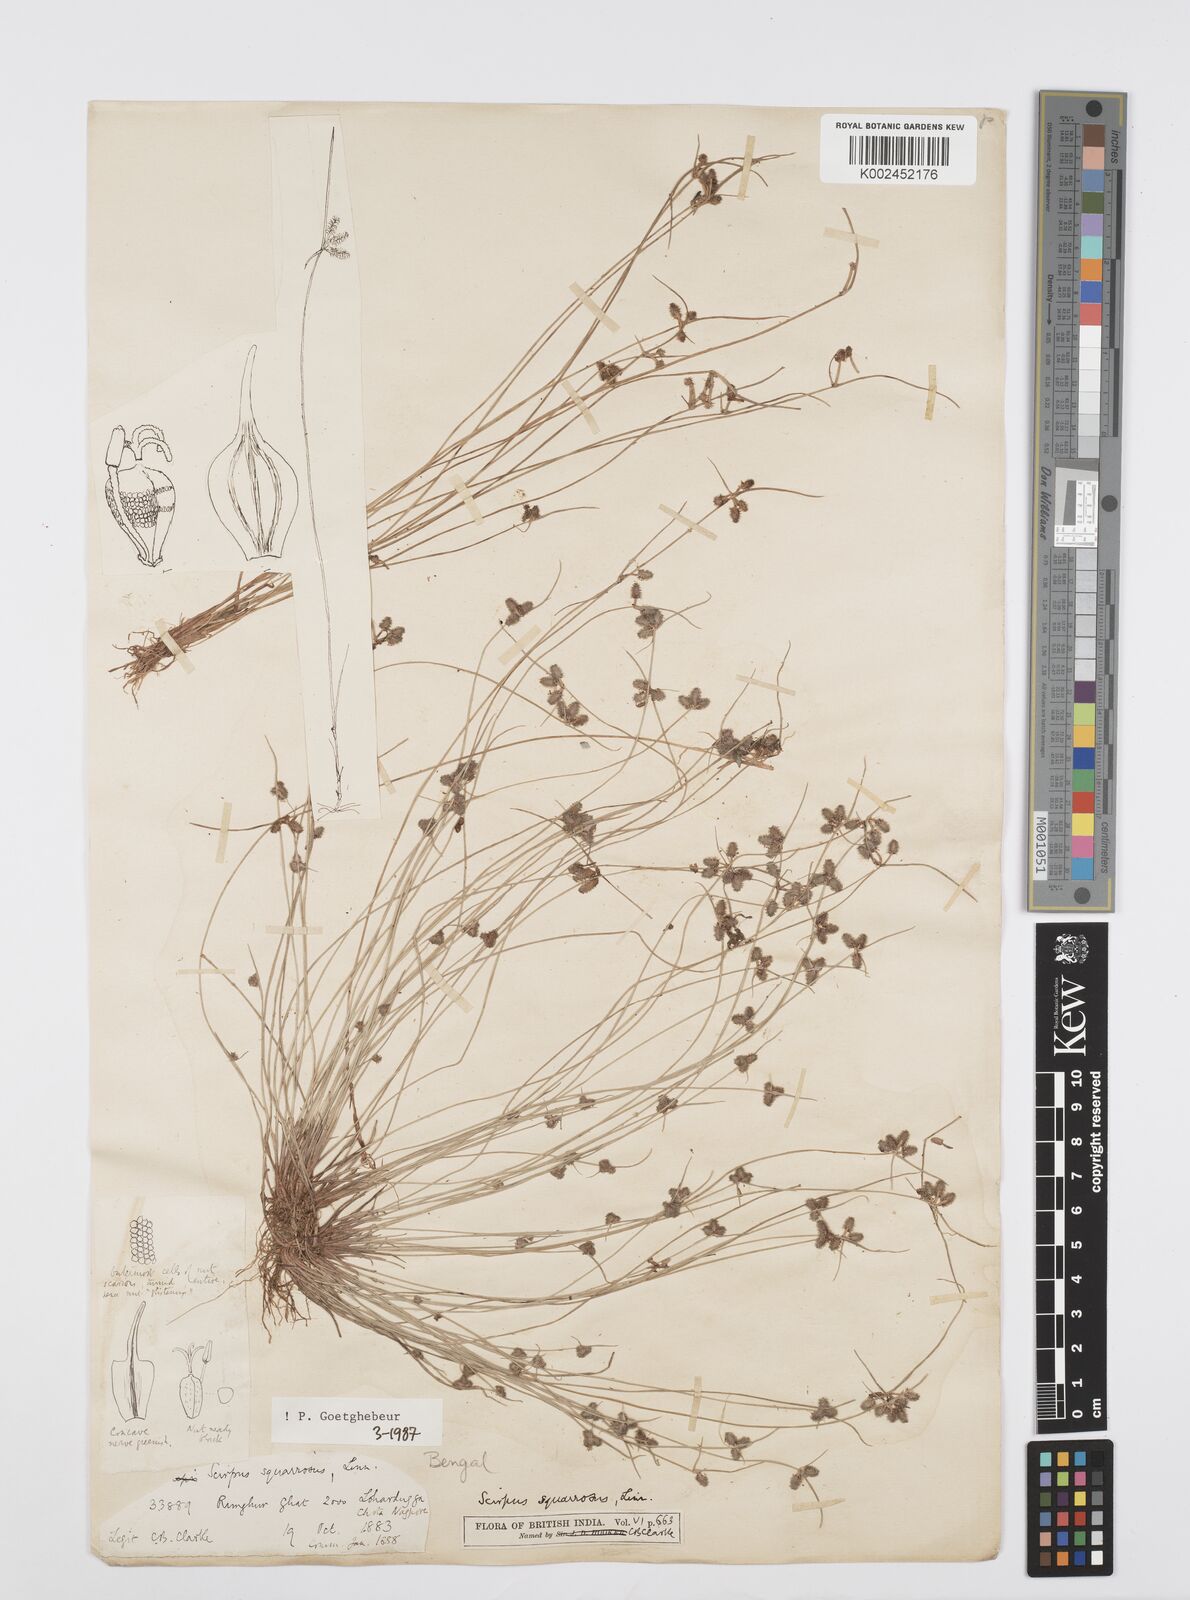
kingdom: Plantae
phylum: Tracheophyta
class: Liliopsida
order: Poales
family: Cyperaceae
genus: Cyperus
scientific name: Cyperus squarrosus
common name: Awned cyperus
